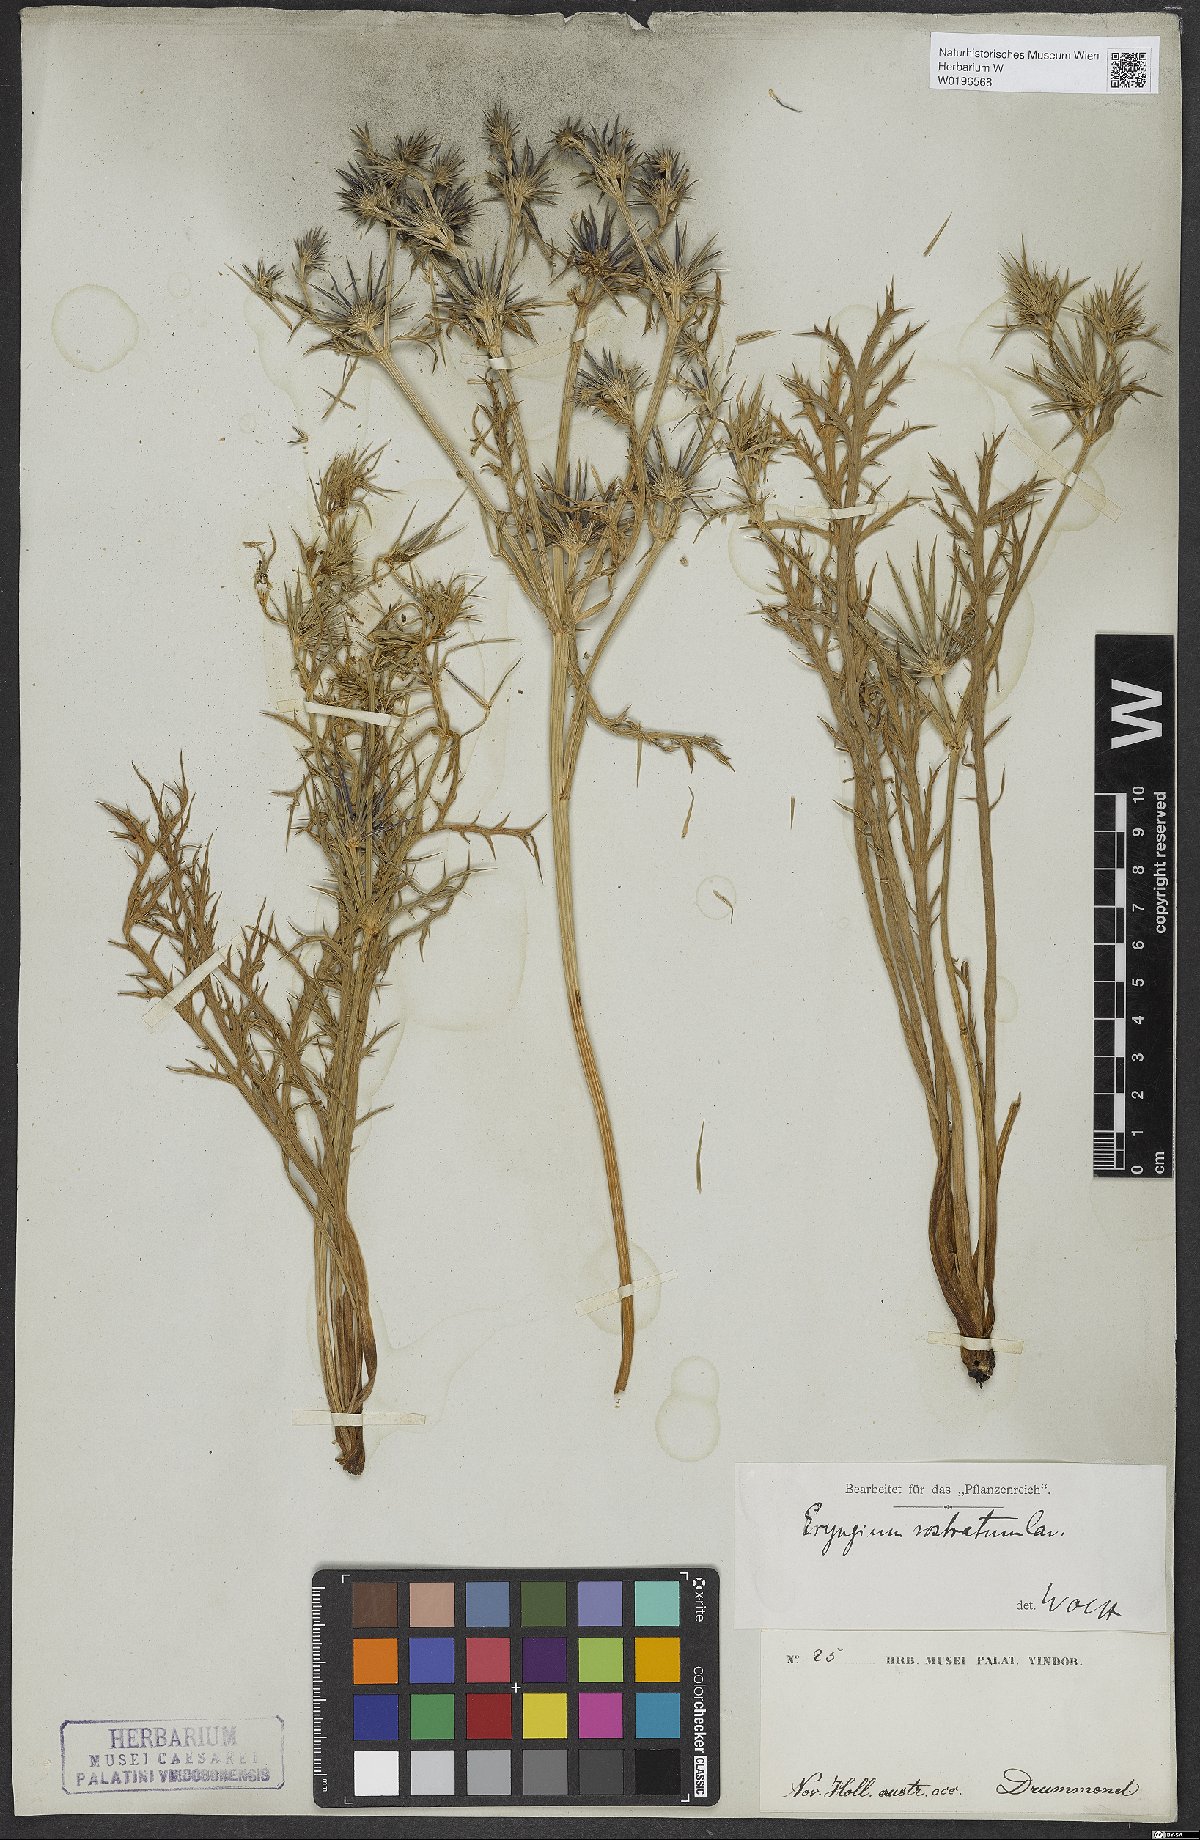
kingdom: Plantae
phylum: Tracheophyta
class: Magnoliopsida
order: Apiales
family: Apiaceae
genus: Eryngium
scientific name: Eryngium rostratum
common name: Blue eryngo
